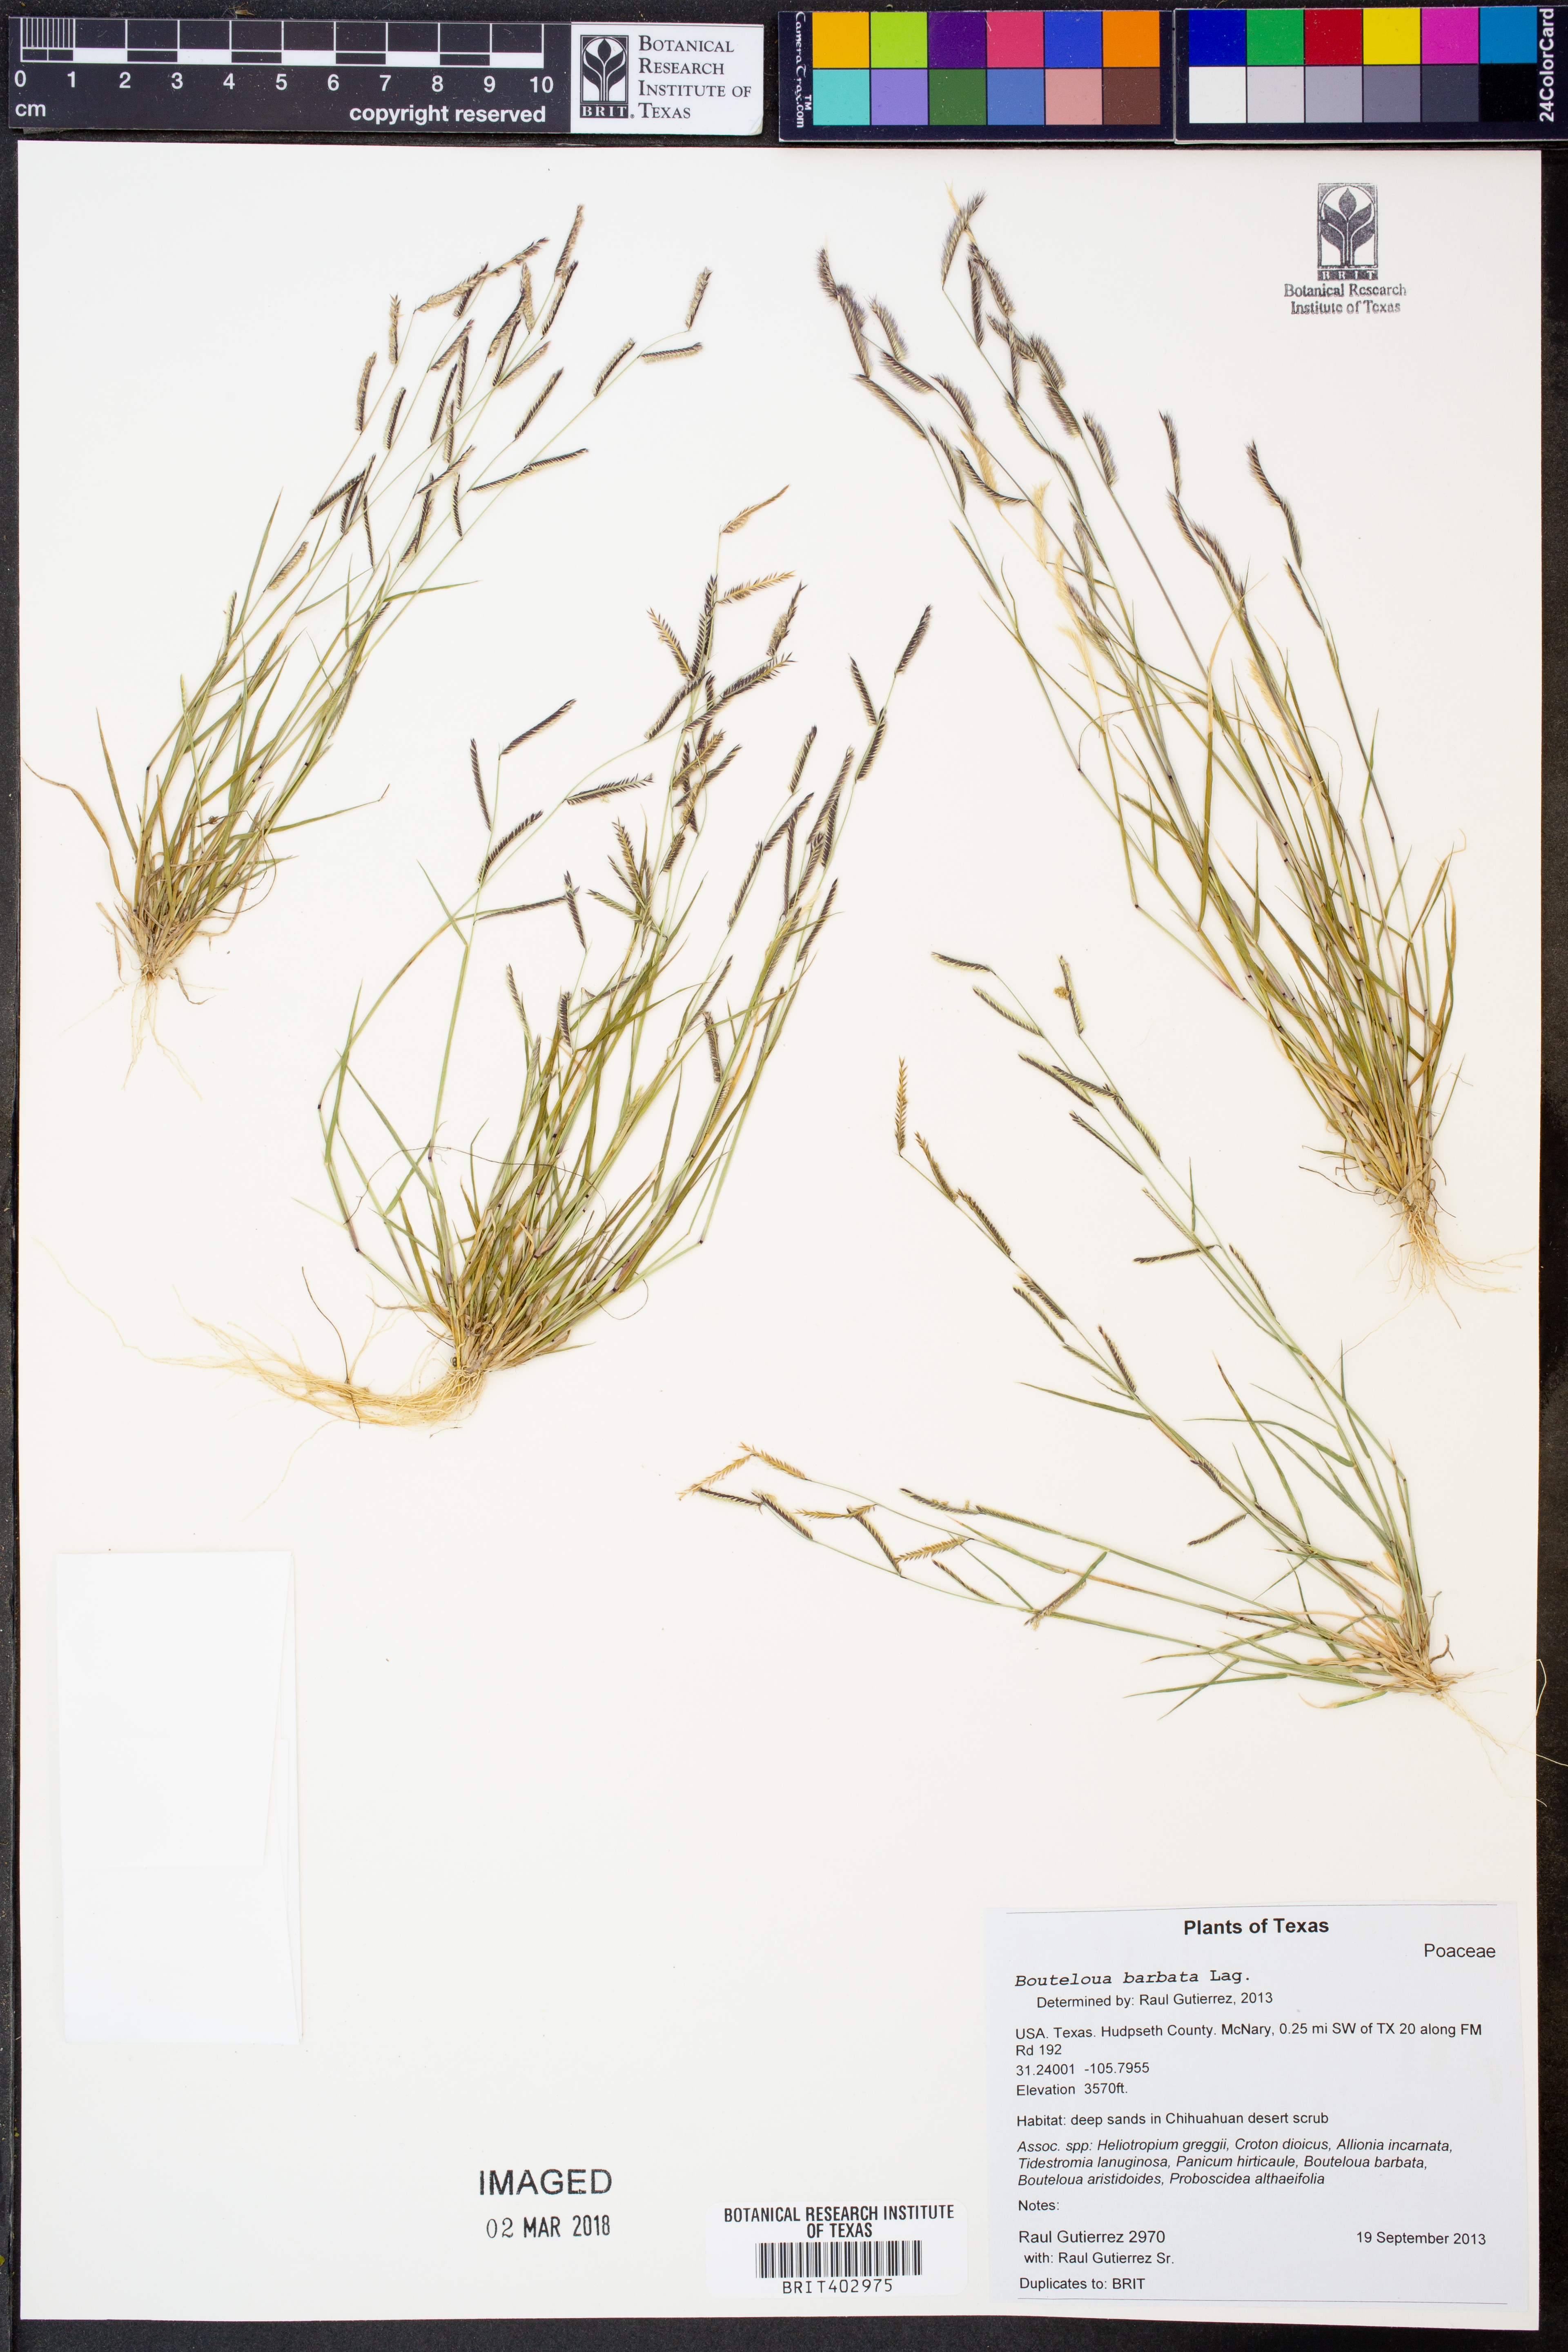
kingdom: Plantae
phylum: Tracheophyta
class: Liliopsida
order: Poales
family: Poaceae
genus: Bouteloua
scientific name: Bouteloua barbata
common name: Six-weeks grama
